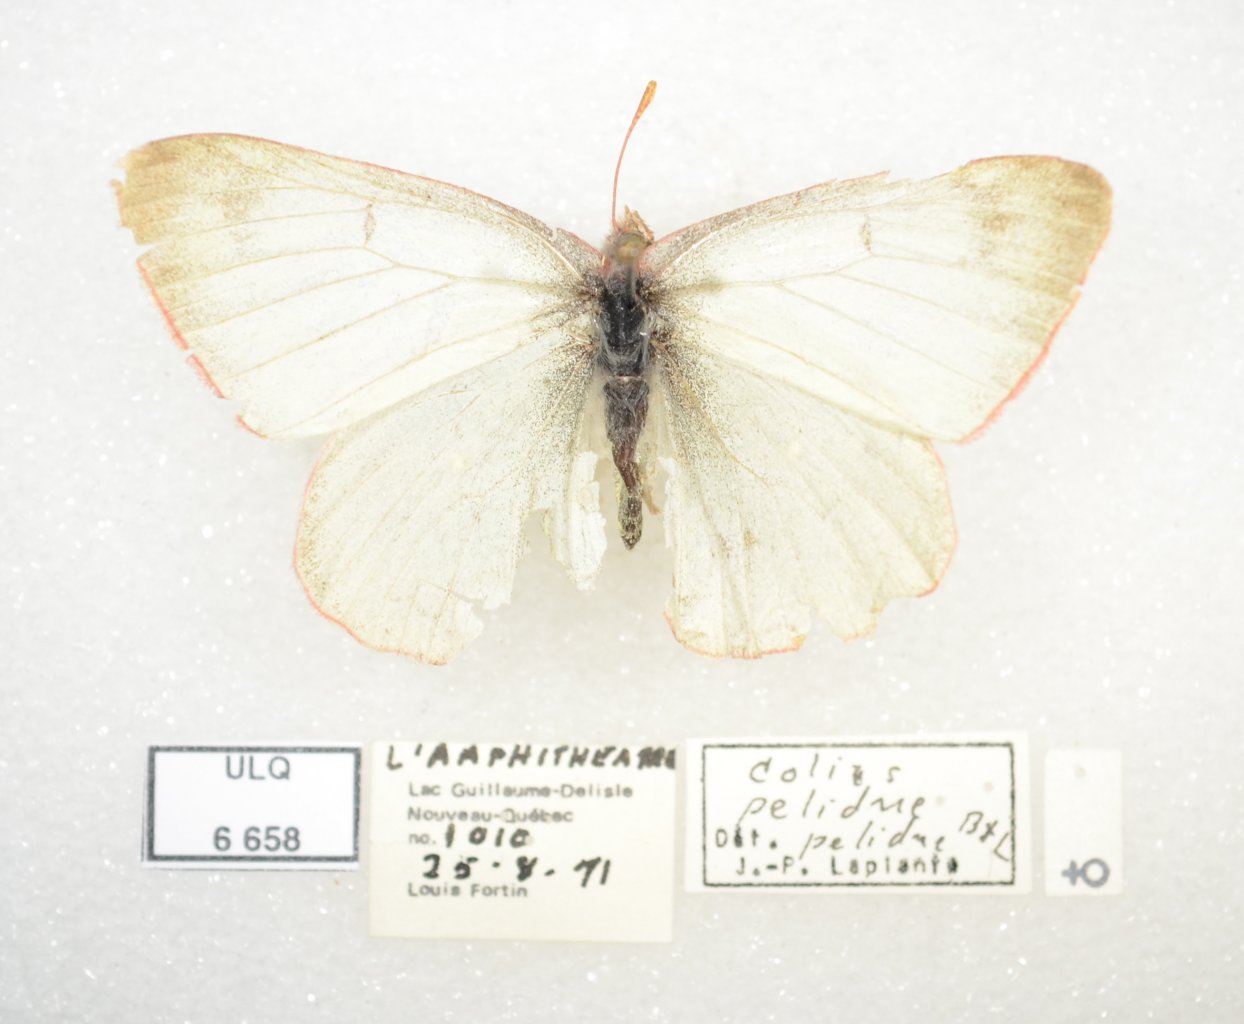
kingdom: Animalia
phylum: Arthropoda
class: Insecta
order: Lepidoptera
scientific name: Lepidoptera
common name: Butterflies
